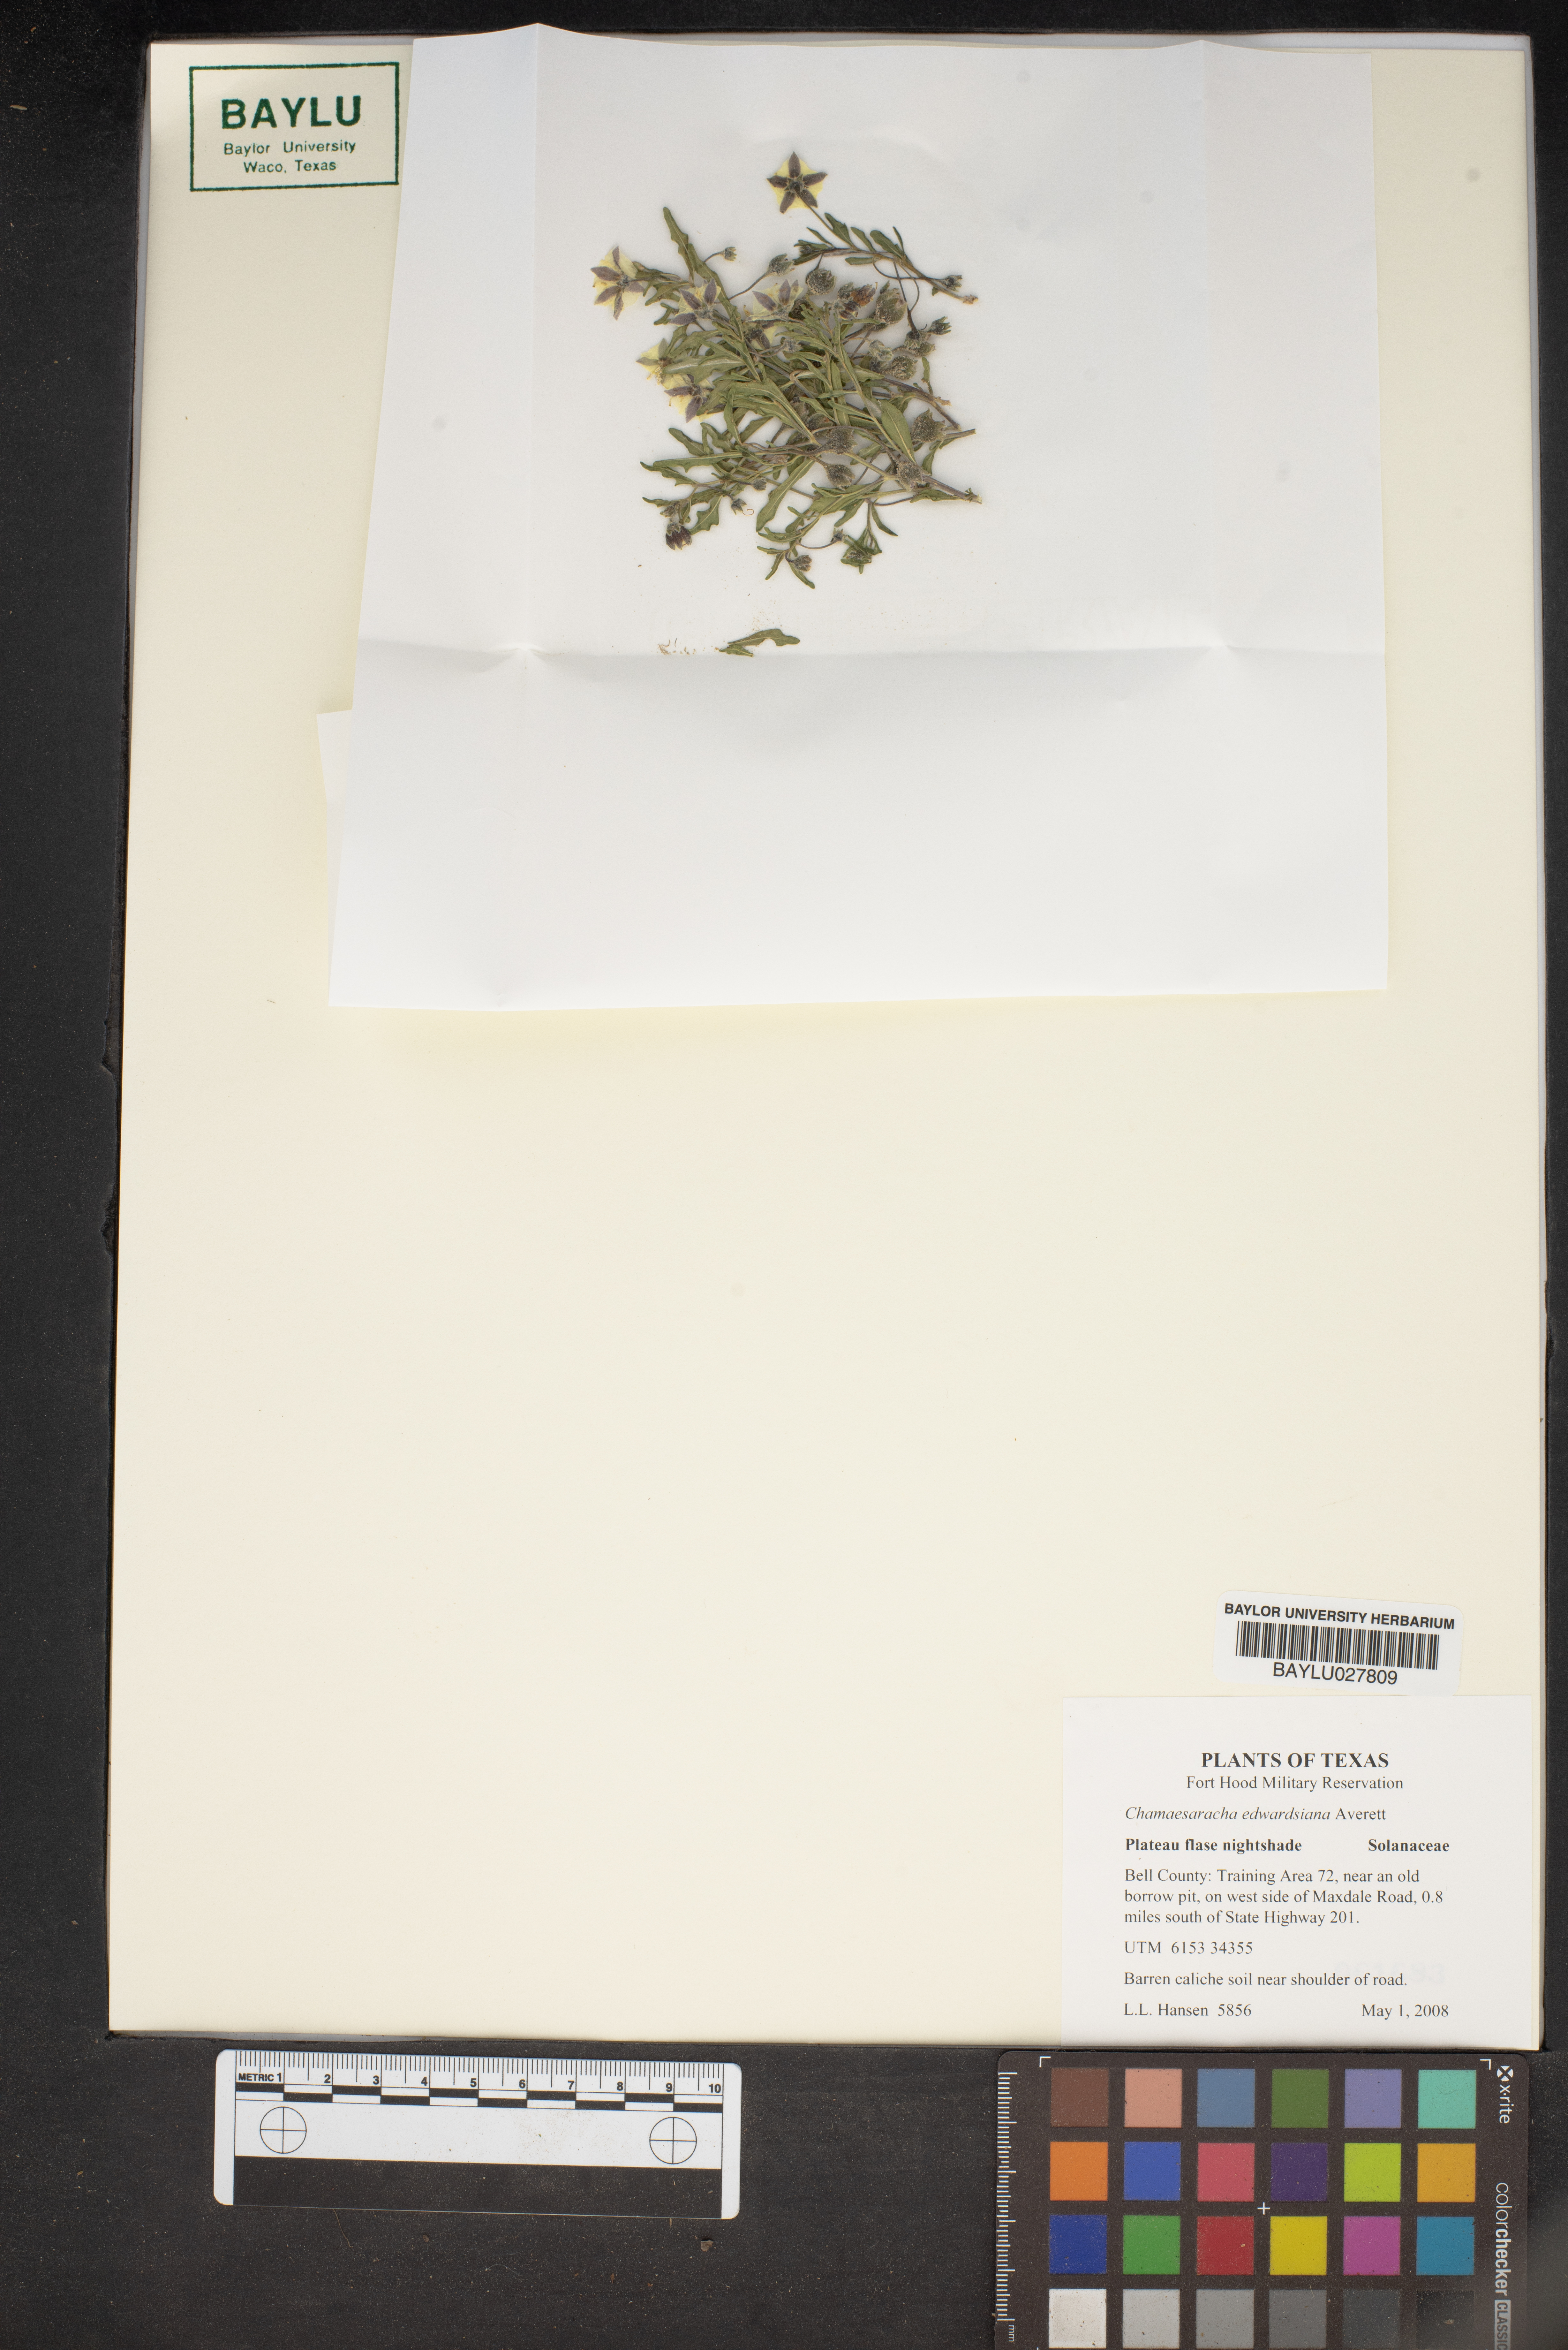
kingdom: Plantae
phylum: Tracheophyta
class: Magnoliopsida
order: Solanales
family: Solanaceae
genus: Chamaesaracha
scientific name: Chamaesaracha edwardsiana
